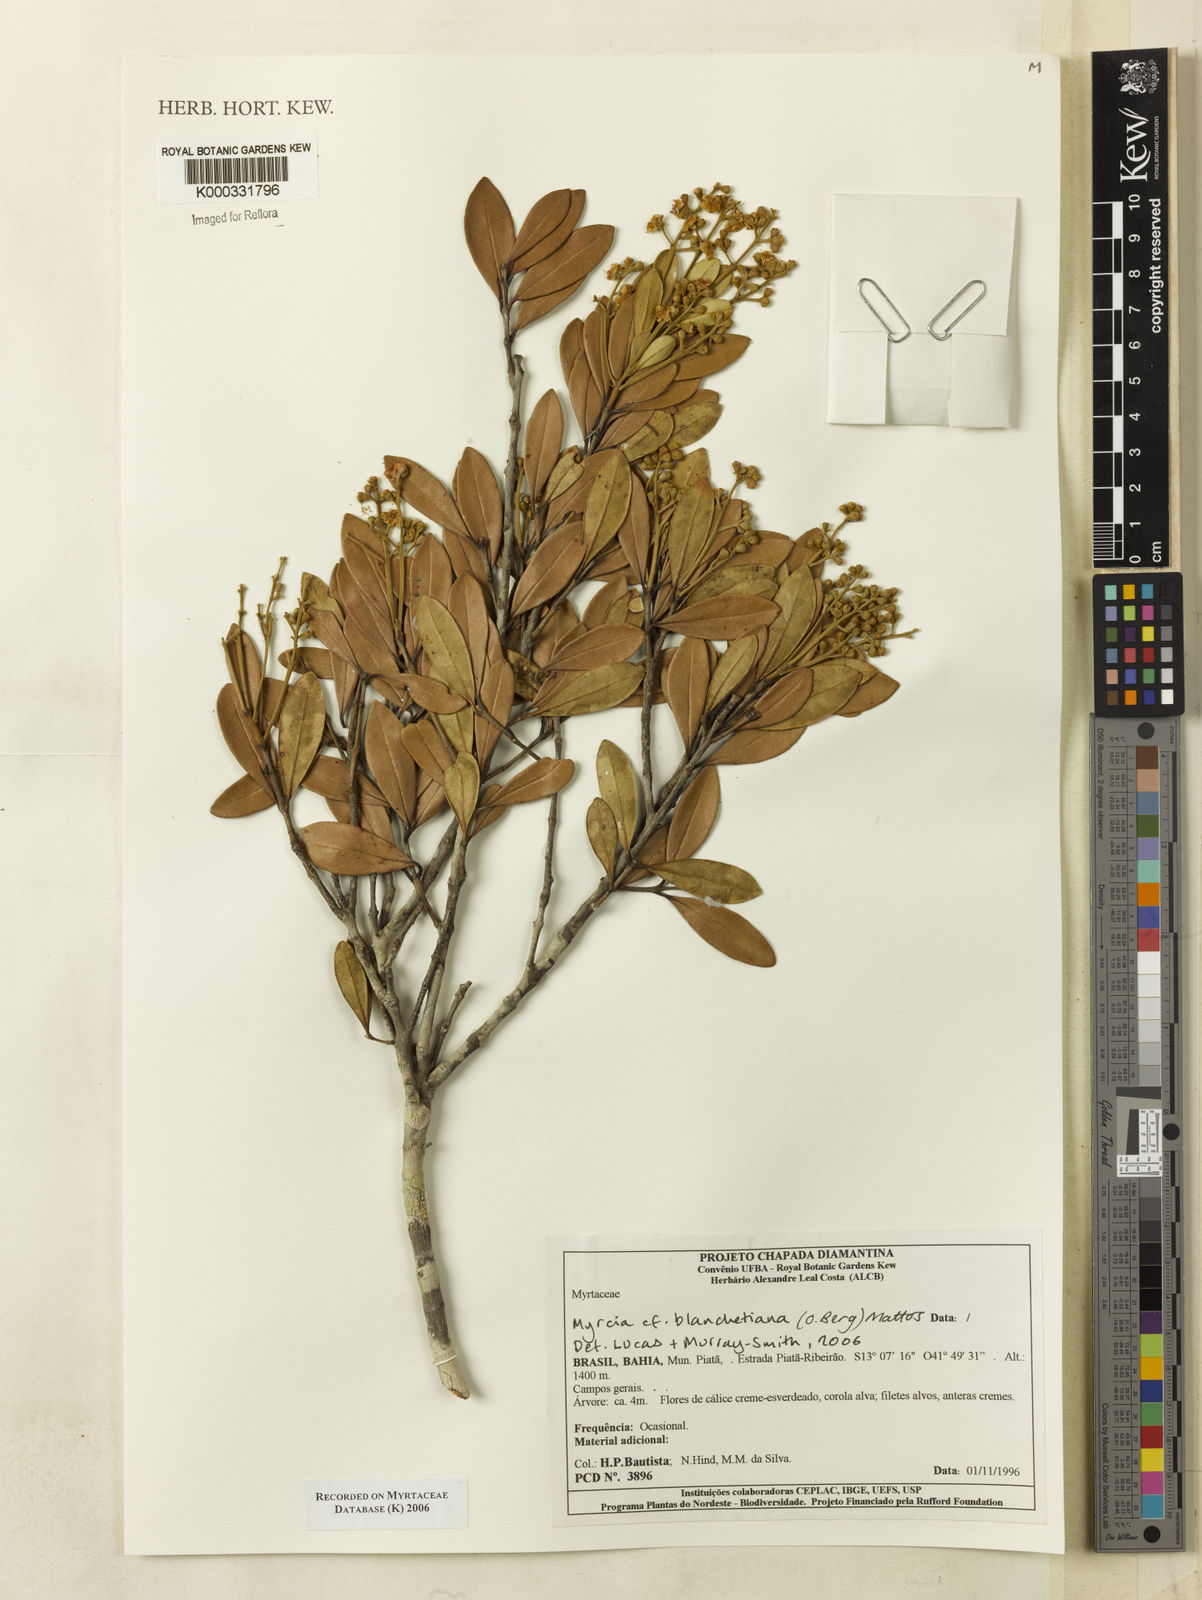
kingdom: Plantae
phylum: Tracheophyta
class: Magnoliopsida
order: Myrtales
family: Myrtaceae
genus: Myrcia
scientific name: Myrcia blanchetiana
